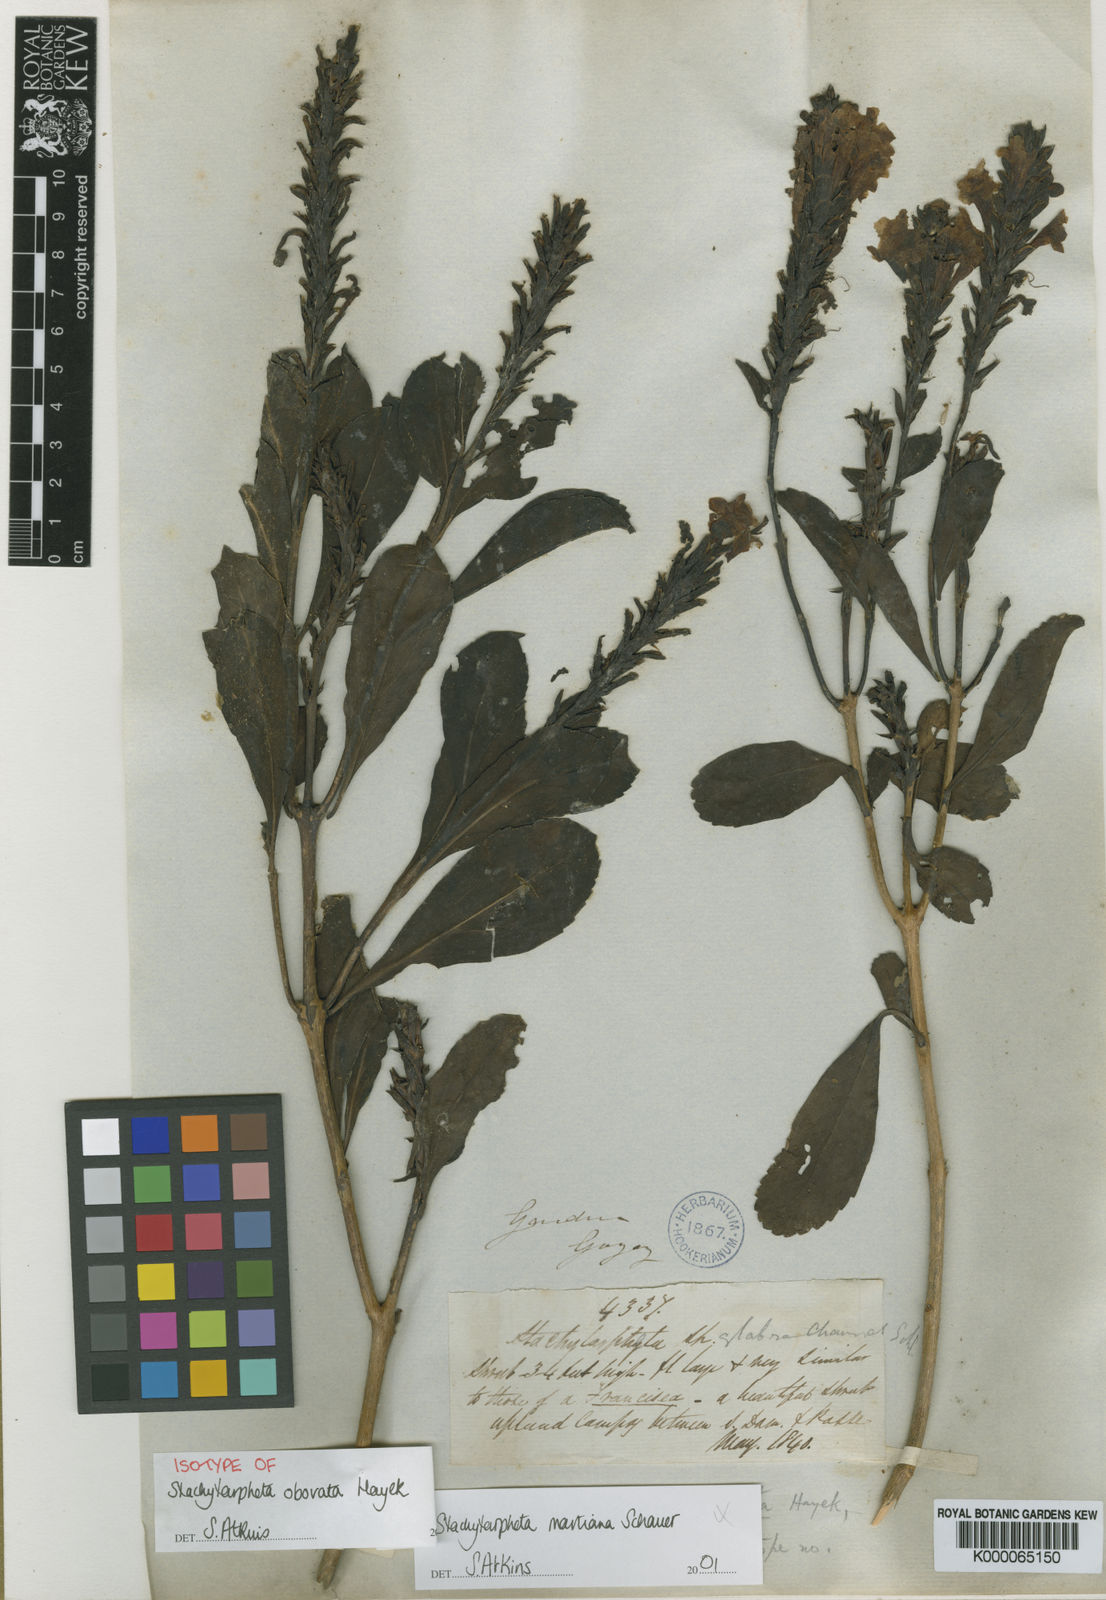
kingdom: Plantae
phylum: Tracheophyta
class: Magnoliopsida
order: Lamiales
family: Verbenaceae
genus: Stachytarpheta
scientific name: Stachytarpheta martiana
